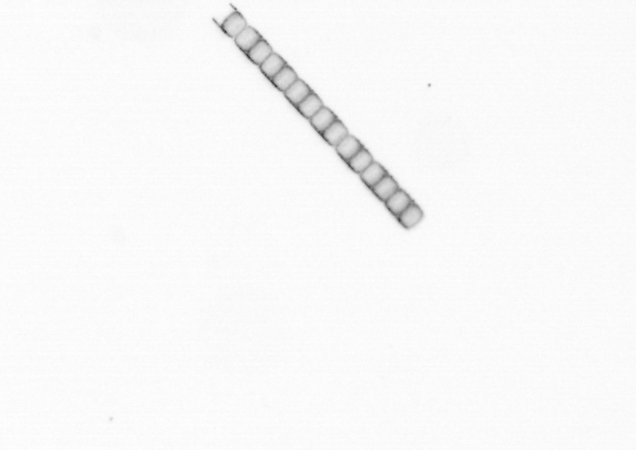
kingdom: Chromista
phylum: Ochrophyta
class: Bacillariophyceae
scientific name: Bacillariophyceae
